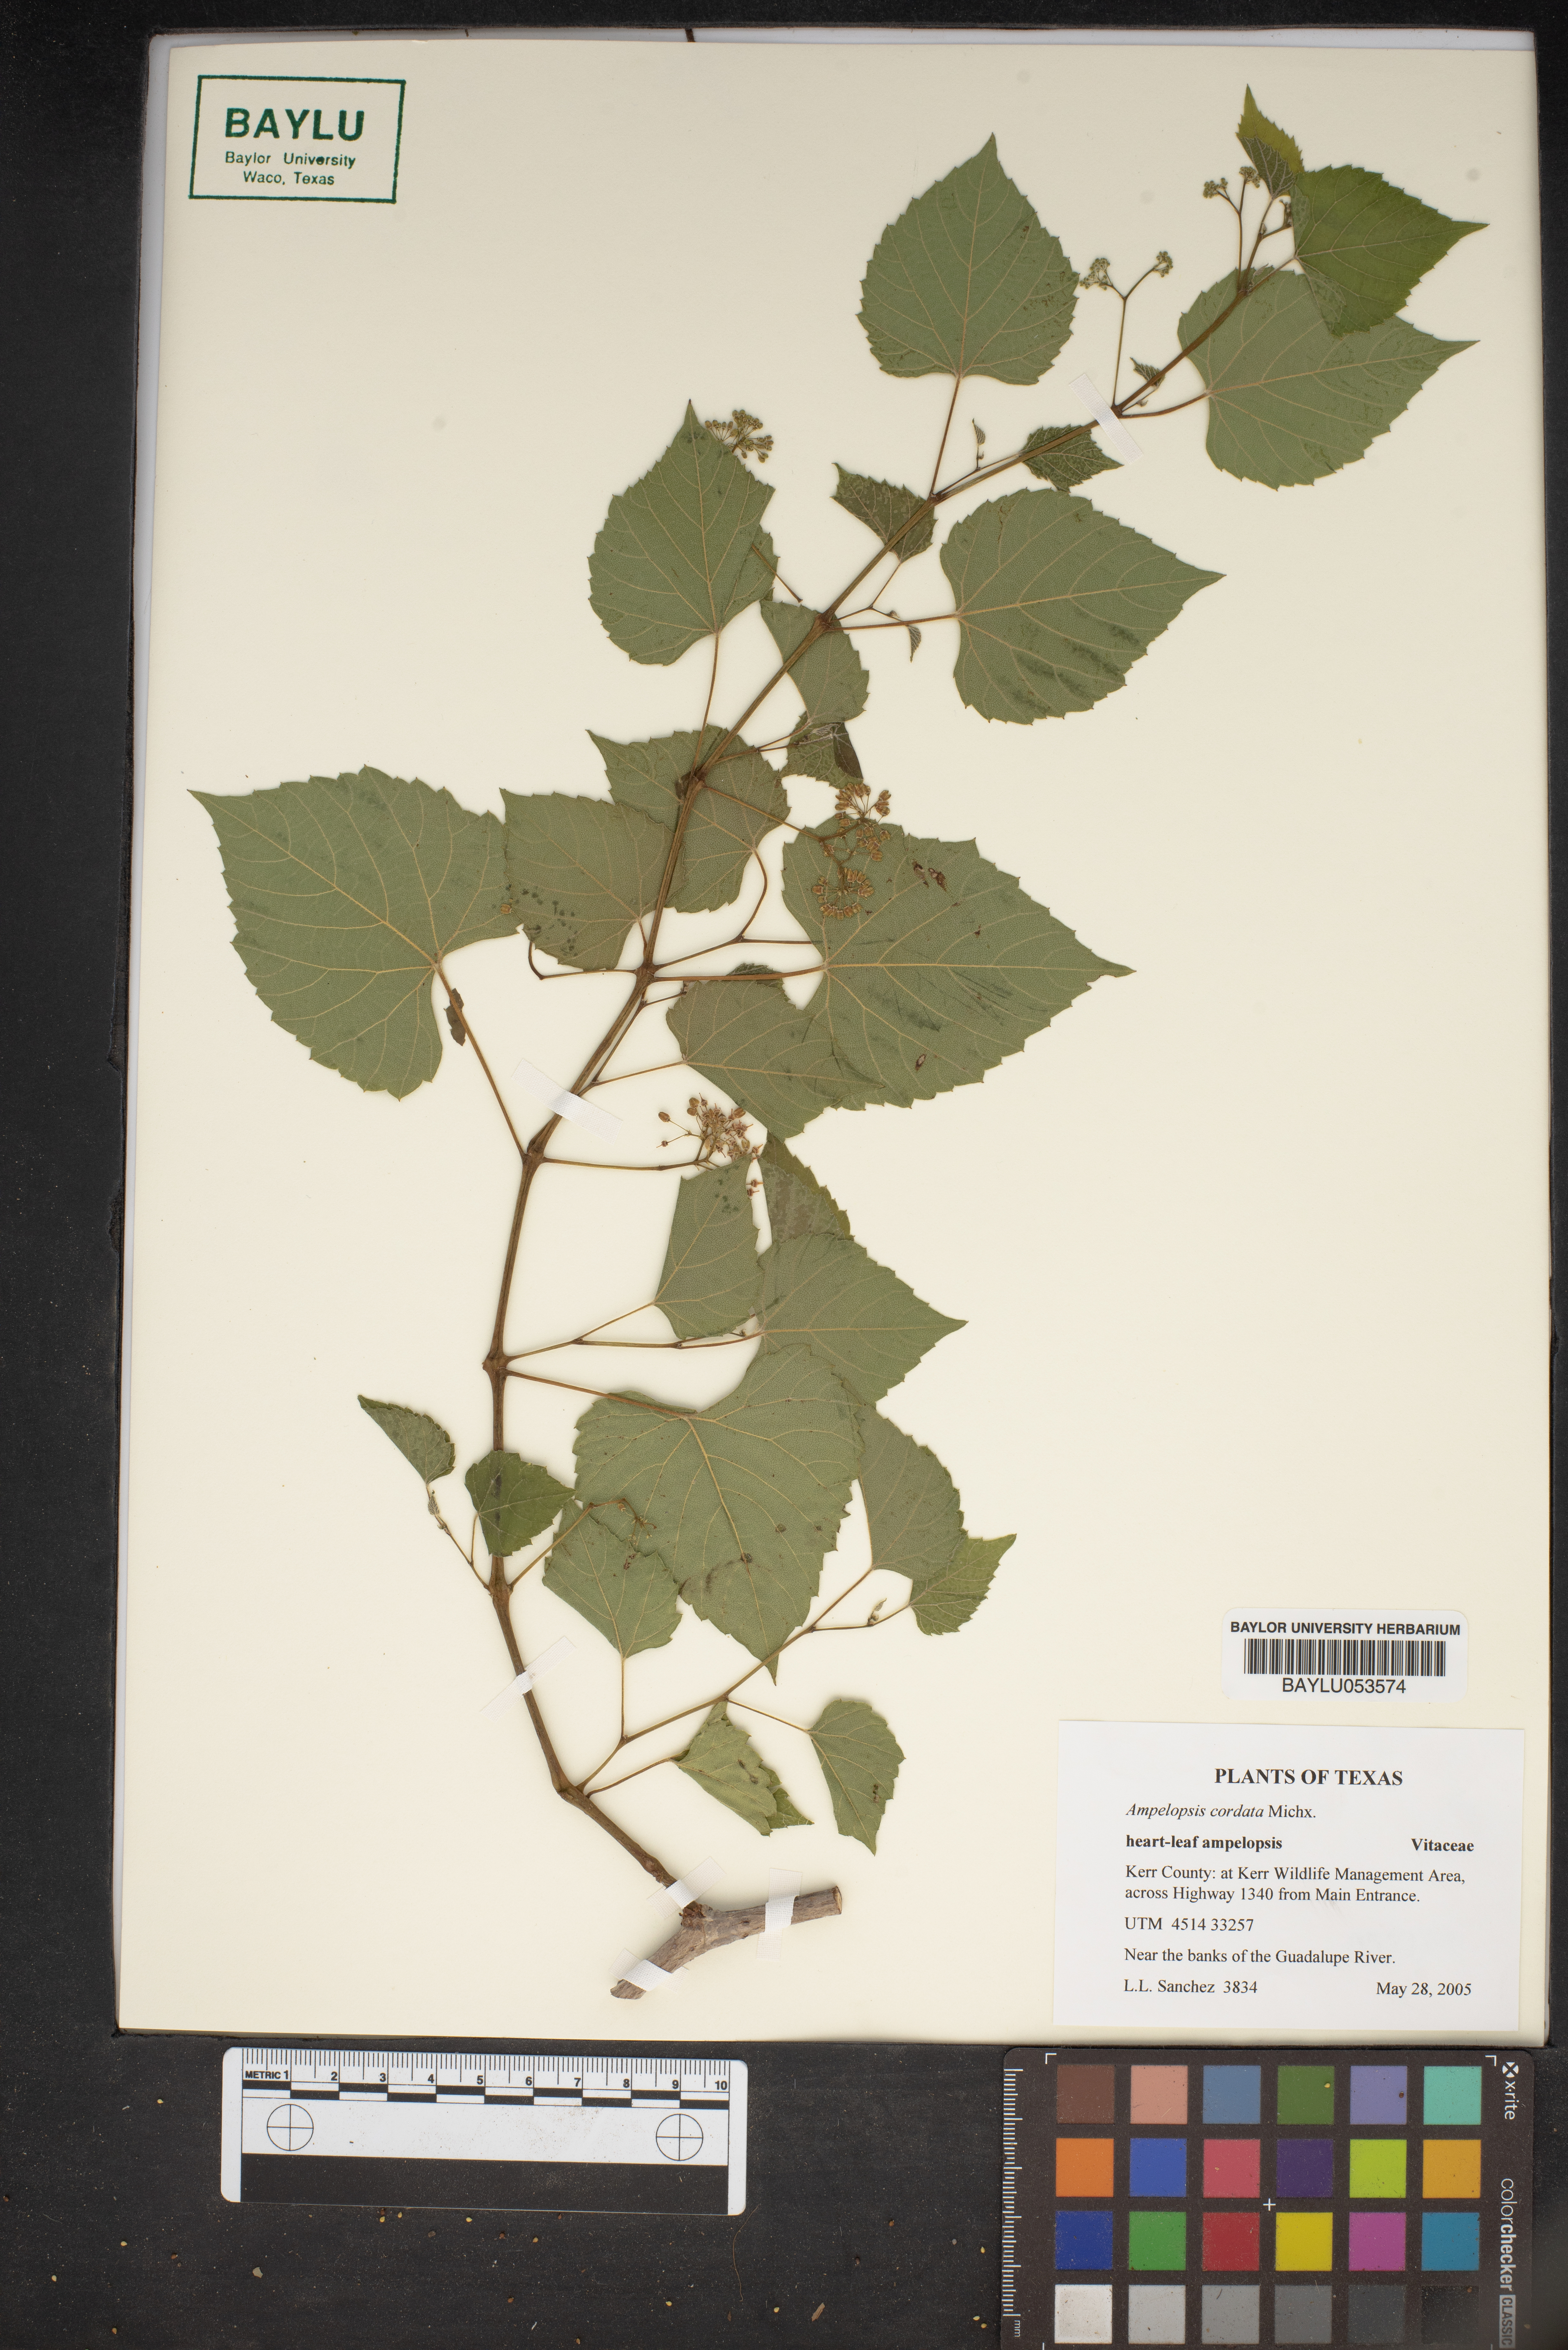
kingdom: Plantae
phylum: Tracheophyta
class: Magnoliopsida
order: Vitales
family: Vitaceae
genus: Ampelopsis
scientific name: Ampelopsis cordata
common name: Heart-leaf ampelopsis
